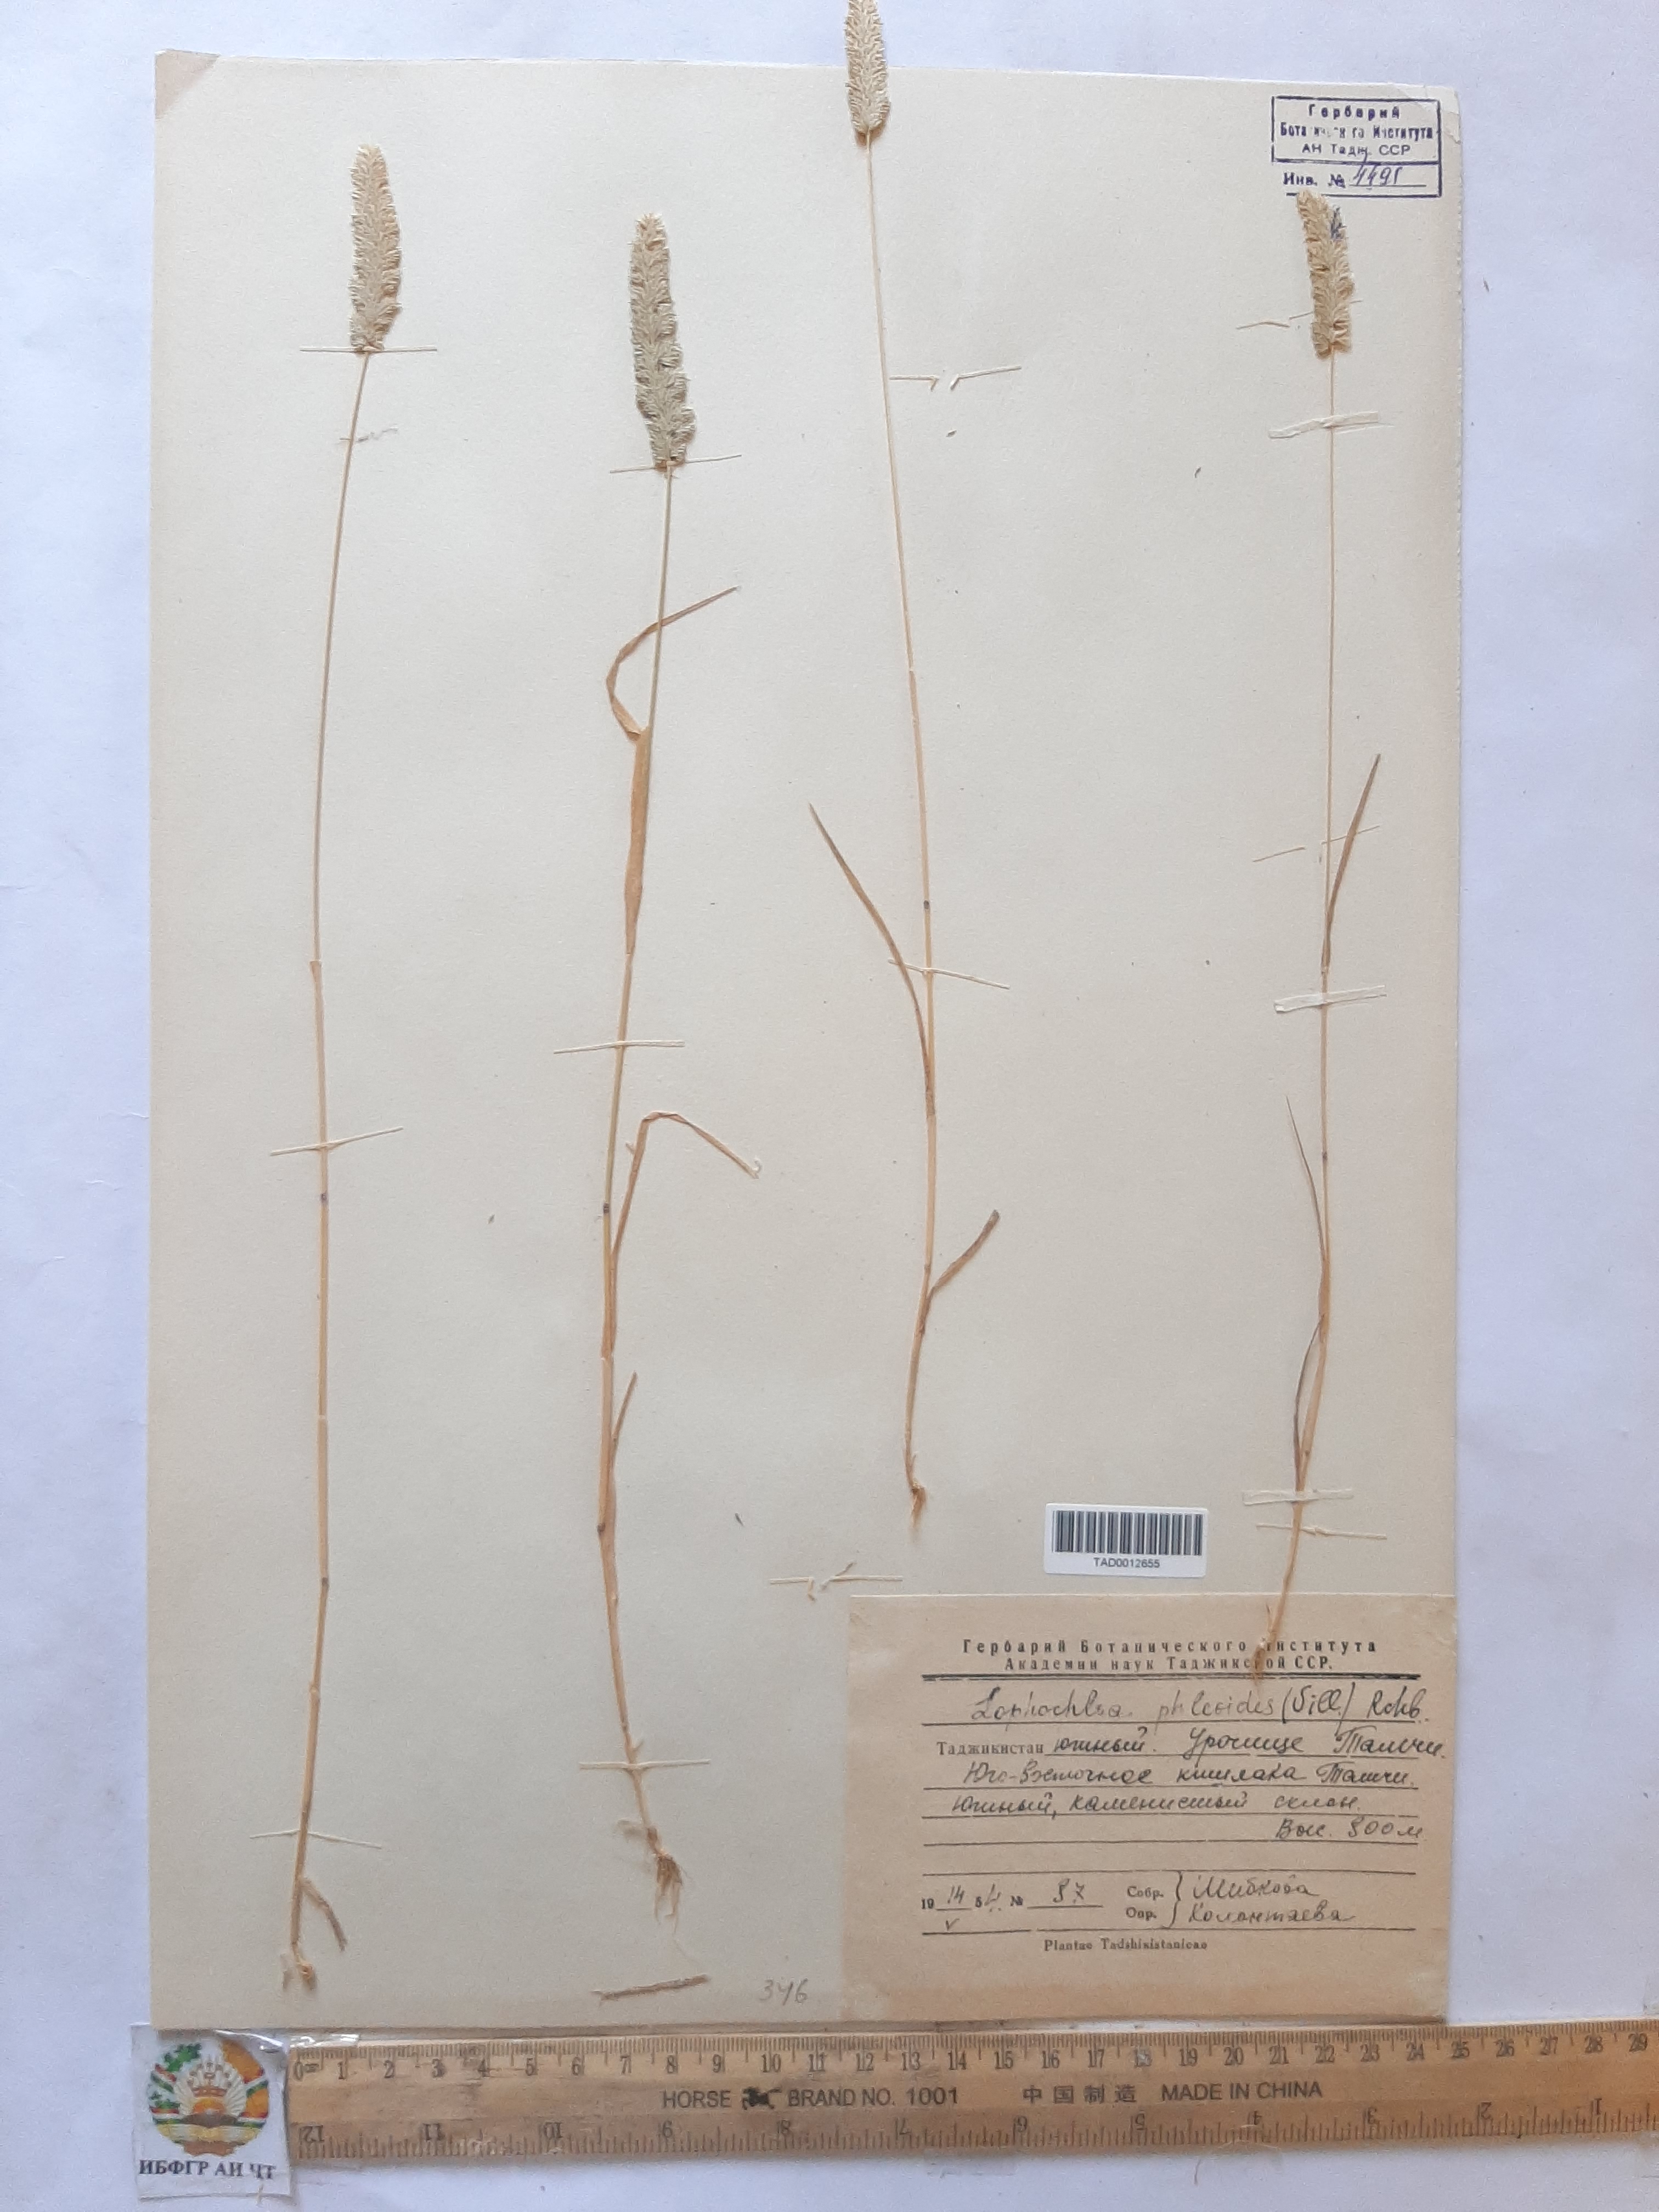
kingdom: Plantae
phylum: Tracheophyta
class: Liliopsida
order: Poales
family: Poaceae
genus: Rostraria
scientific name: Rostraria cristata
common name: Mediterranean hair-grass
